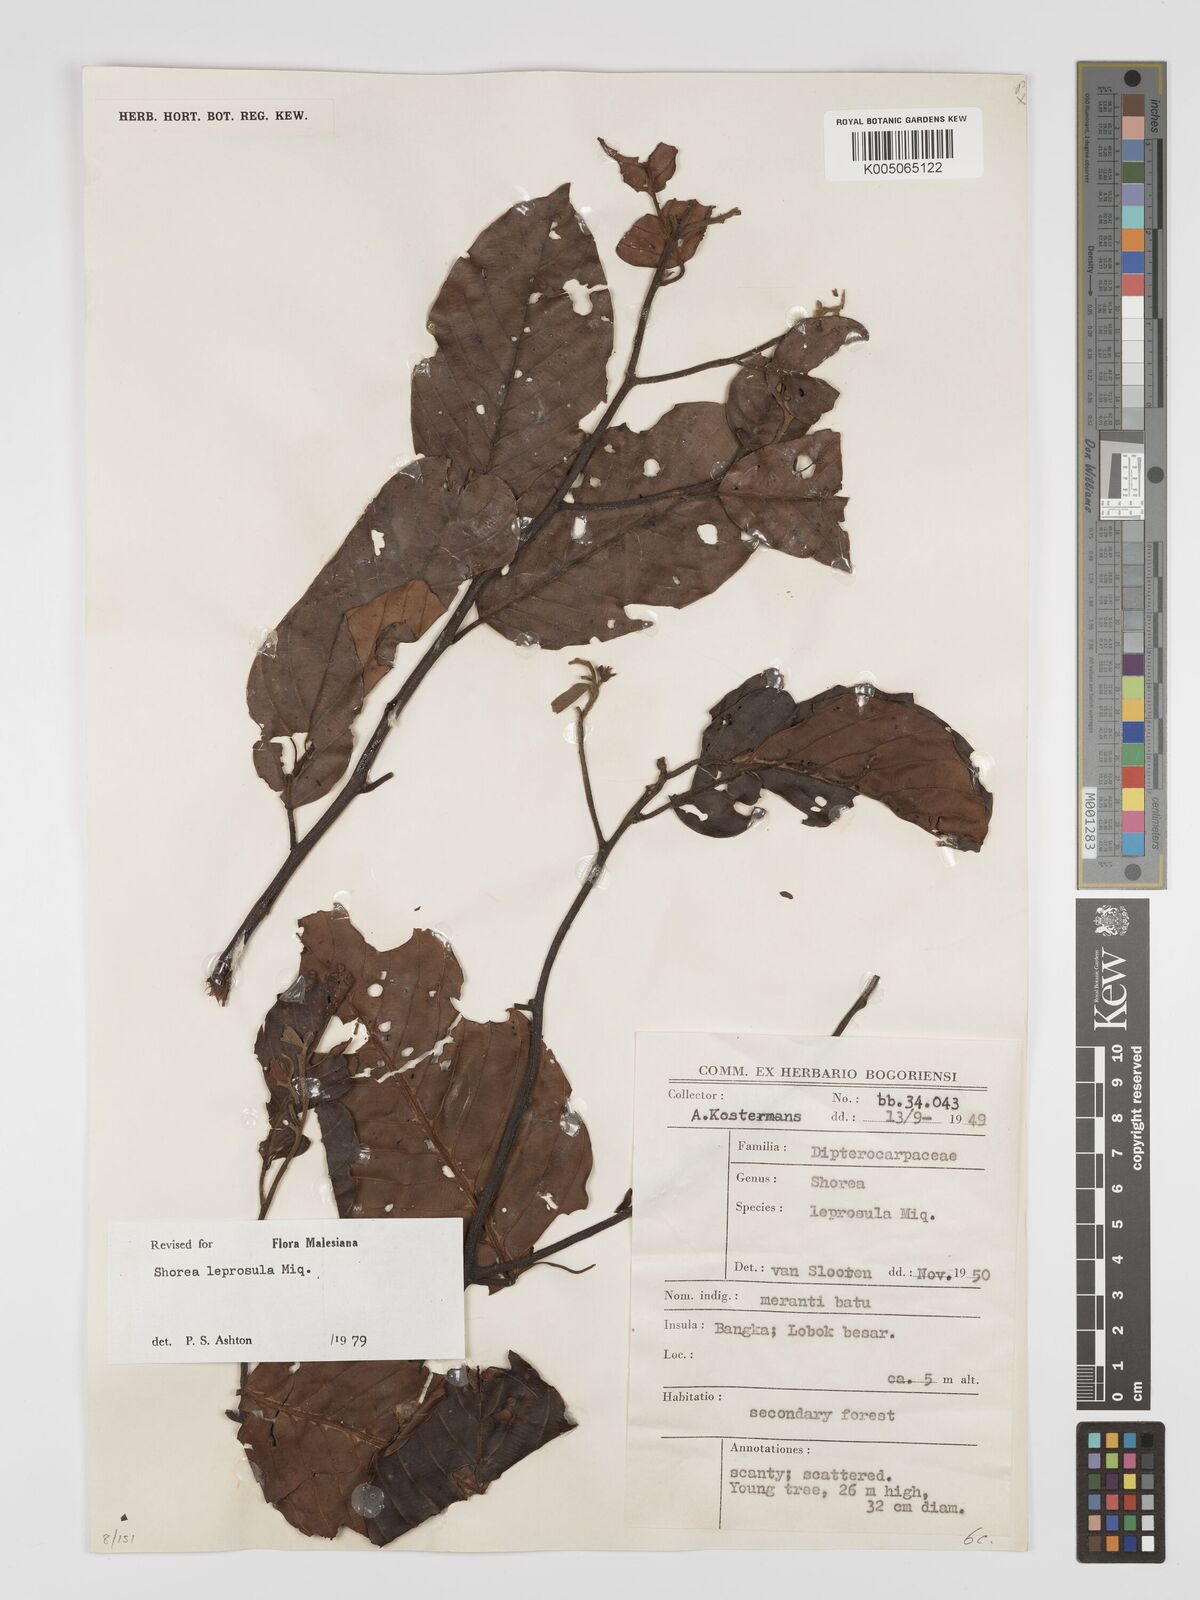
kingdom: Plantae
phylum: Tracheophyta
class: Magnoliopsida
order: Malvales
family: Dipterocarpaceae
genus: Shorea
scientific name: Shorea leprosula
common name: Light red meranti
